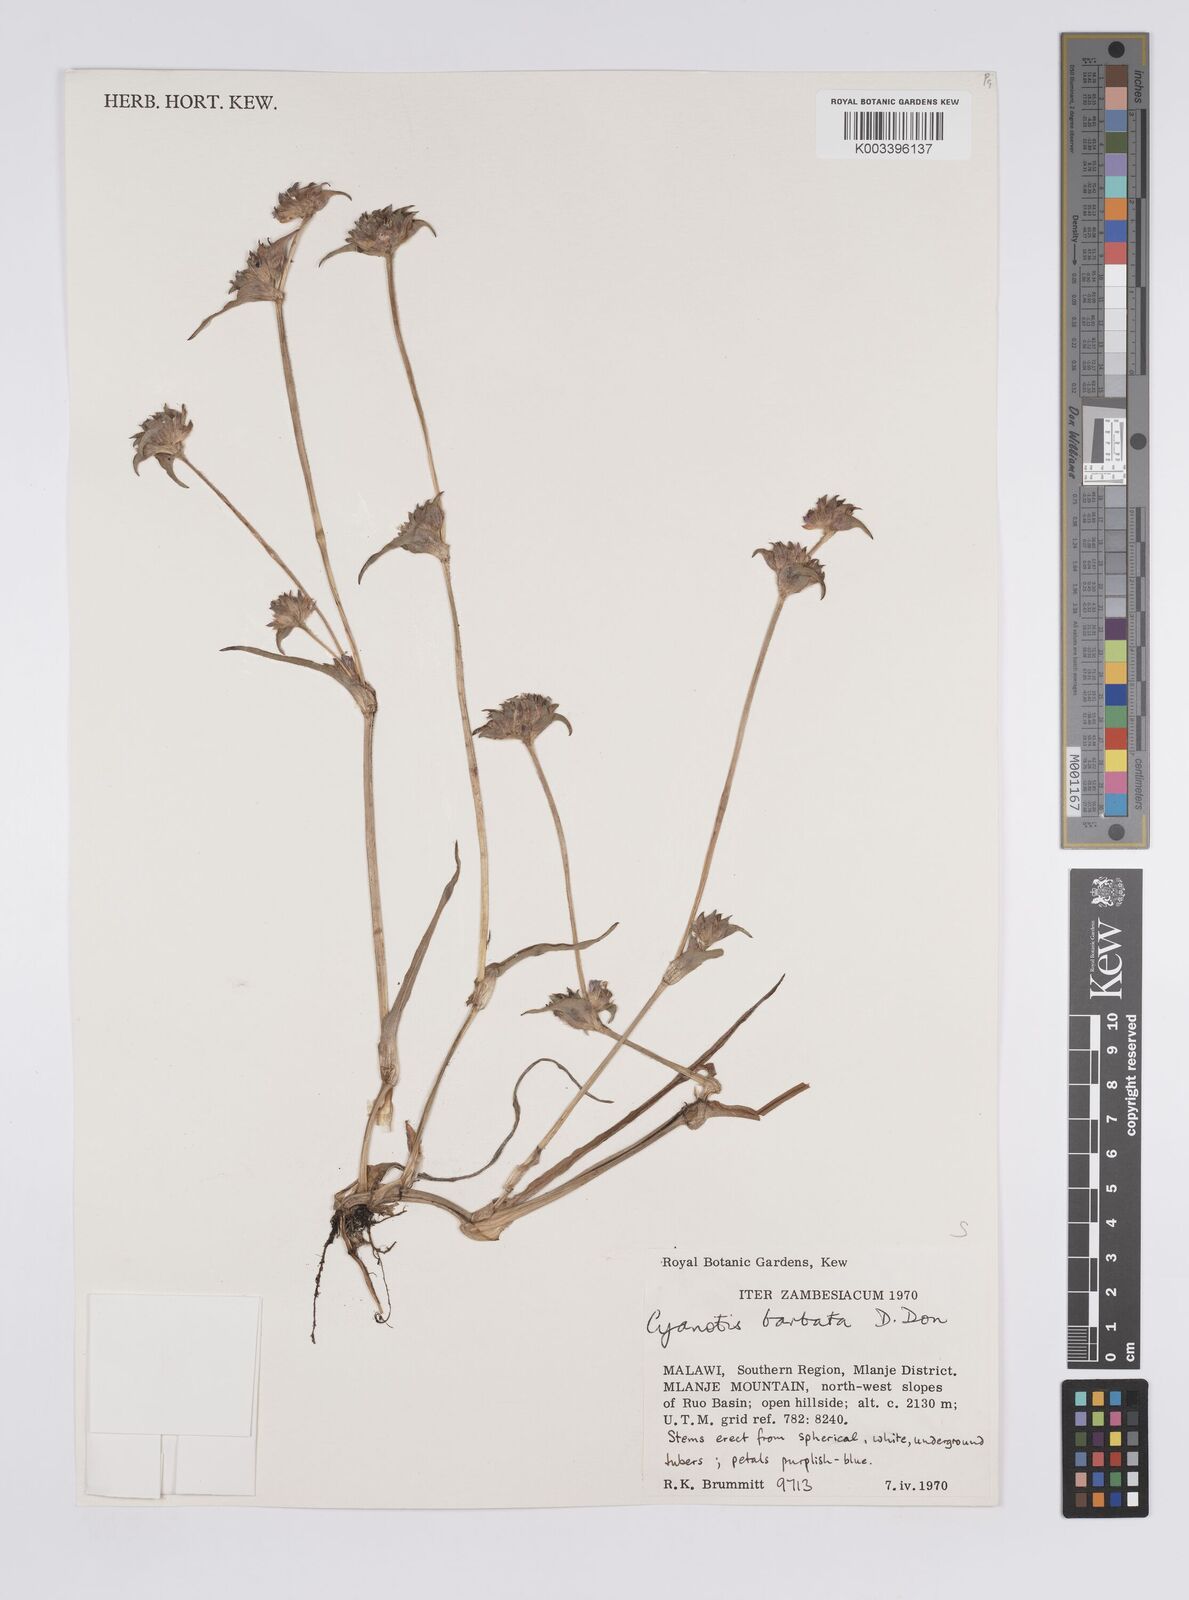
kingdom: Plantae
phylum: Tracheophyta
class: Liliopsida
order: Commelinales
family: Commelinaceae
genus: Cyanotis
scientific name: Cyanotis vaga
